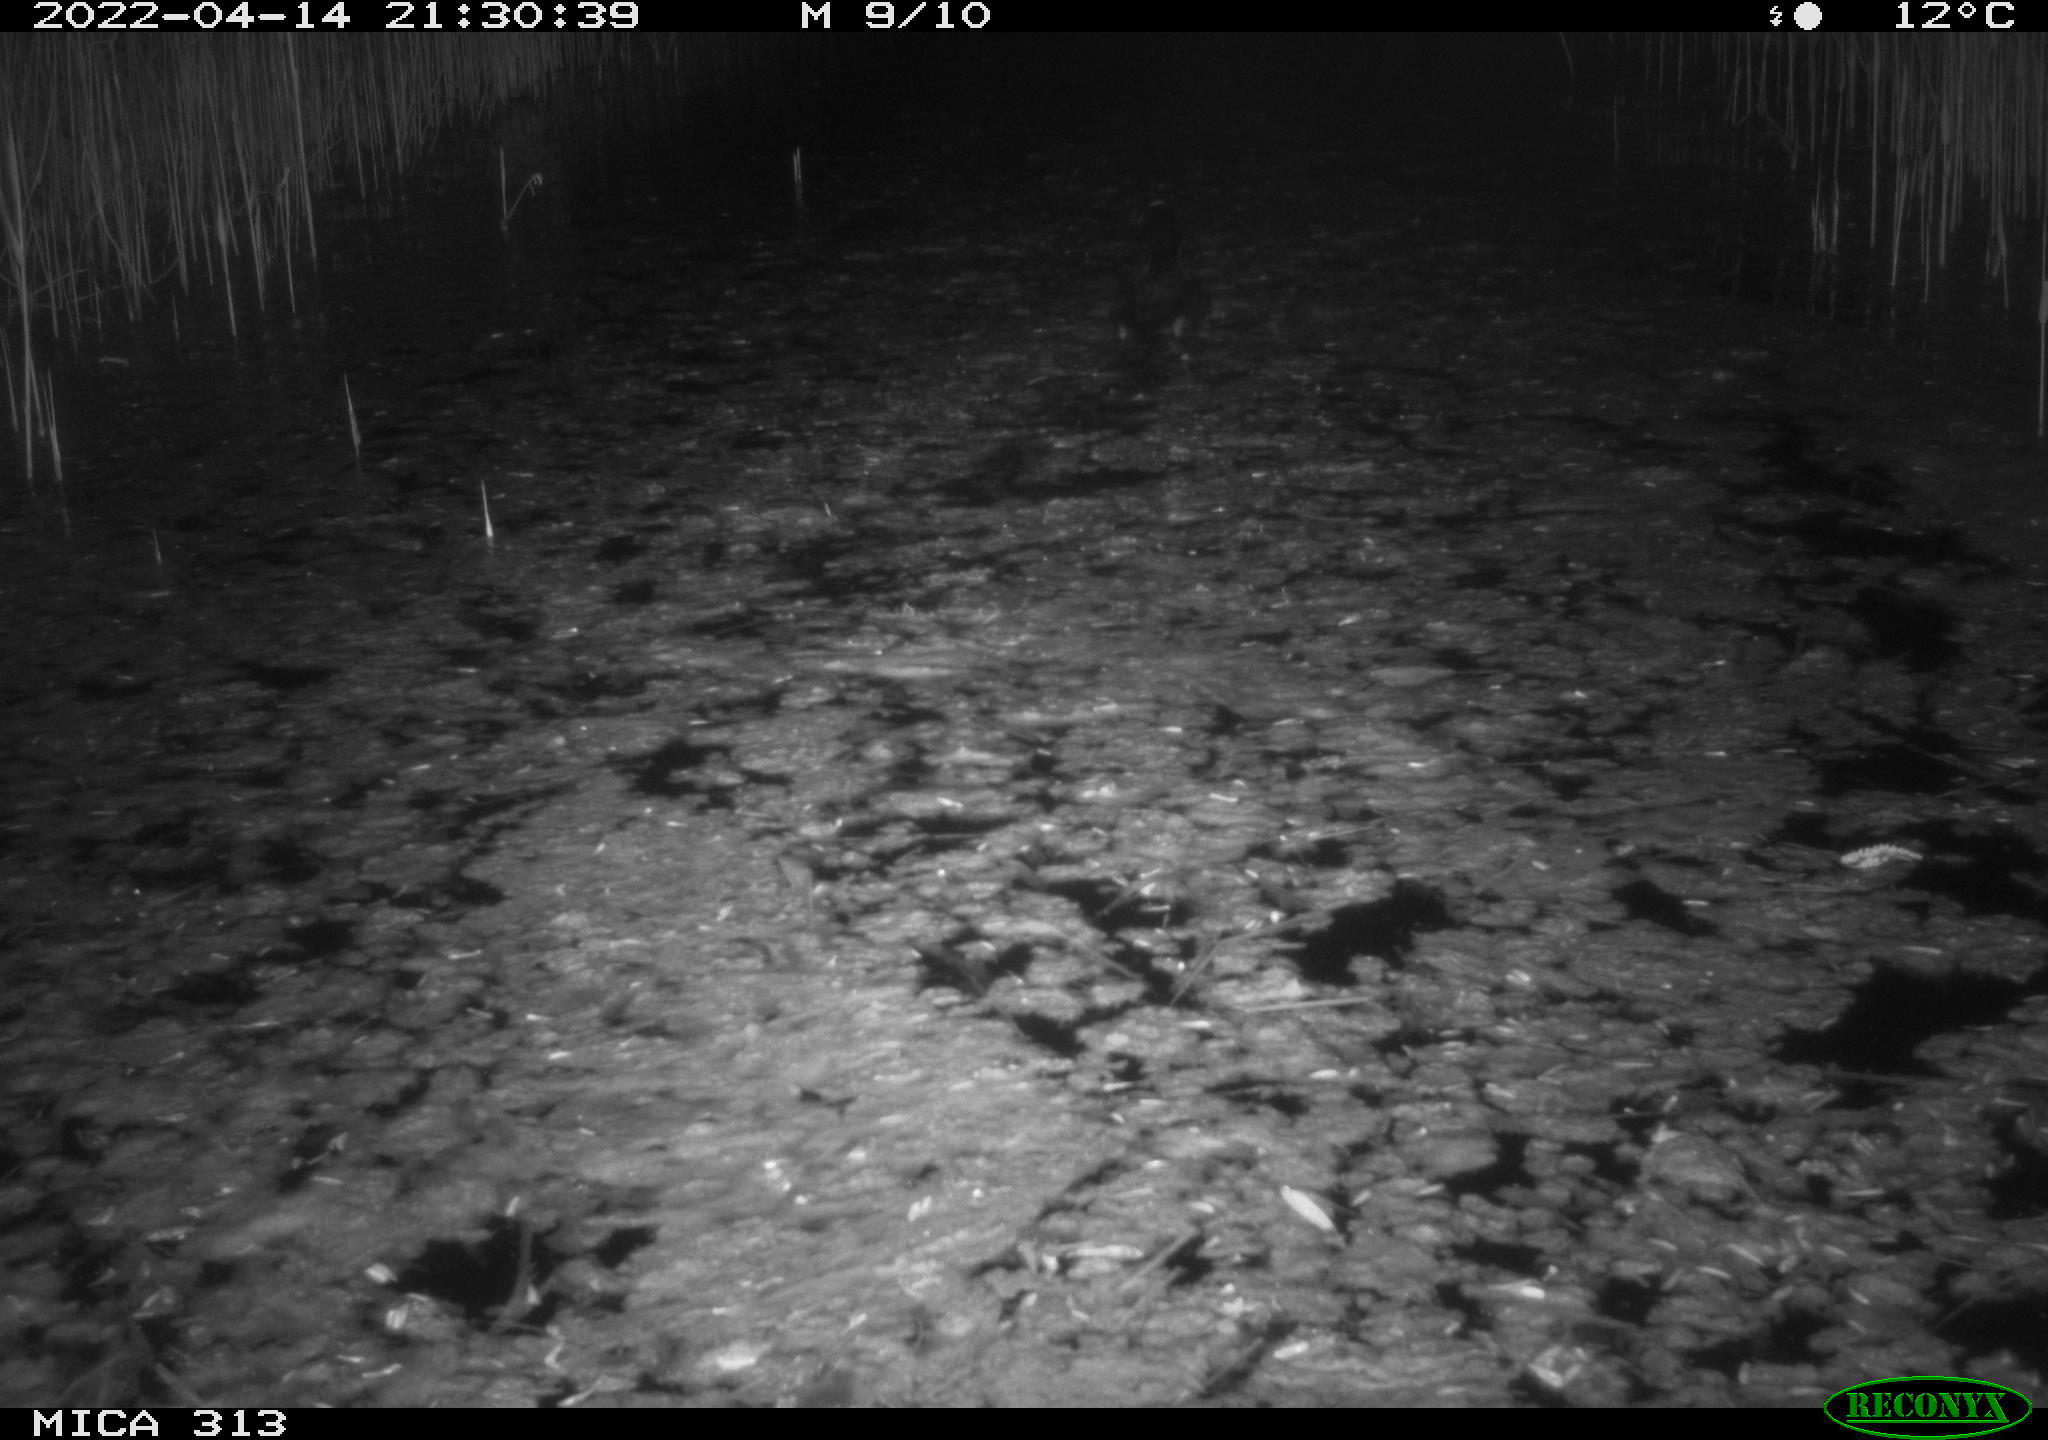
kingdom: Animalia
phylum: Chordata
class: Aves
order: Gruiformes
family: Rallidae
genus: Fulica
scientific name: Fulica atra
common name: Eurasian coot
